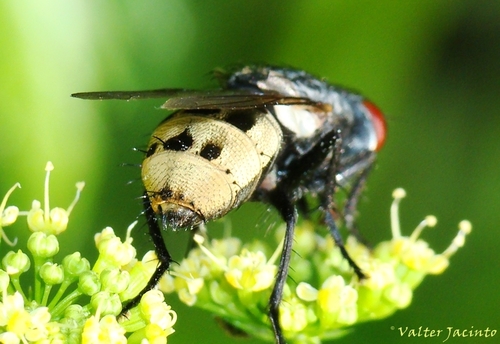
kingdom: Animalia
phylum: Arthropoda
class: Insecta
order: Diptera
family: Sarcophagidae
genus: Wohlfahrtia
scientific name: Wohlfahrtia bella
